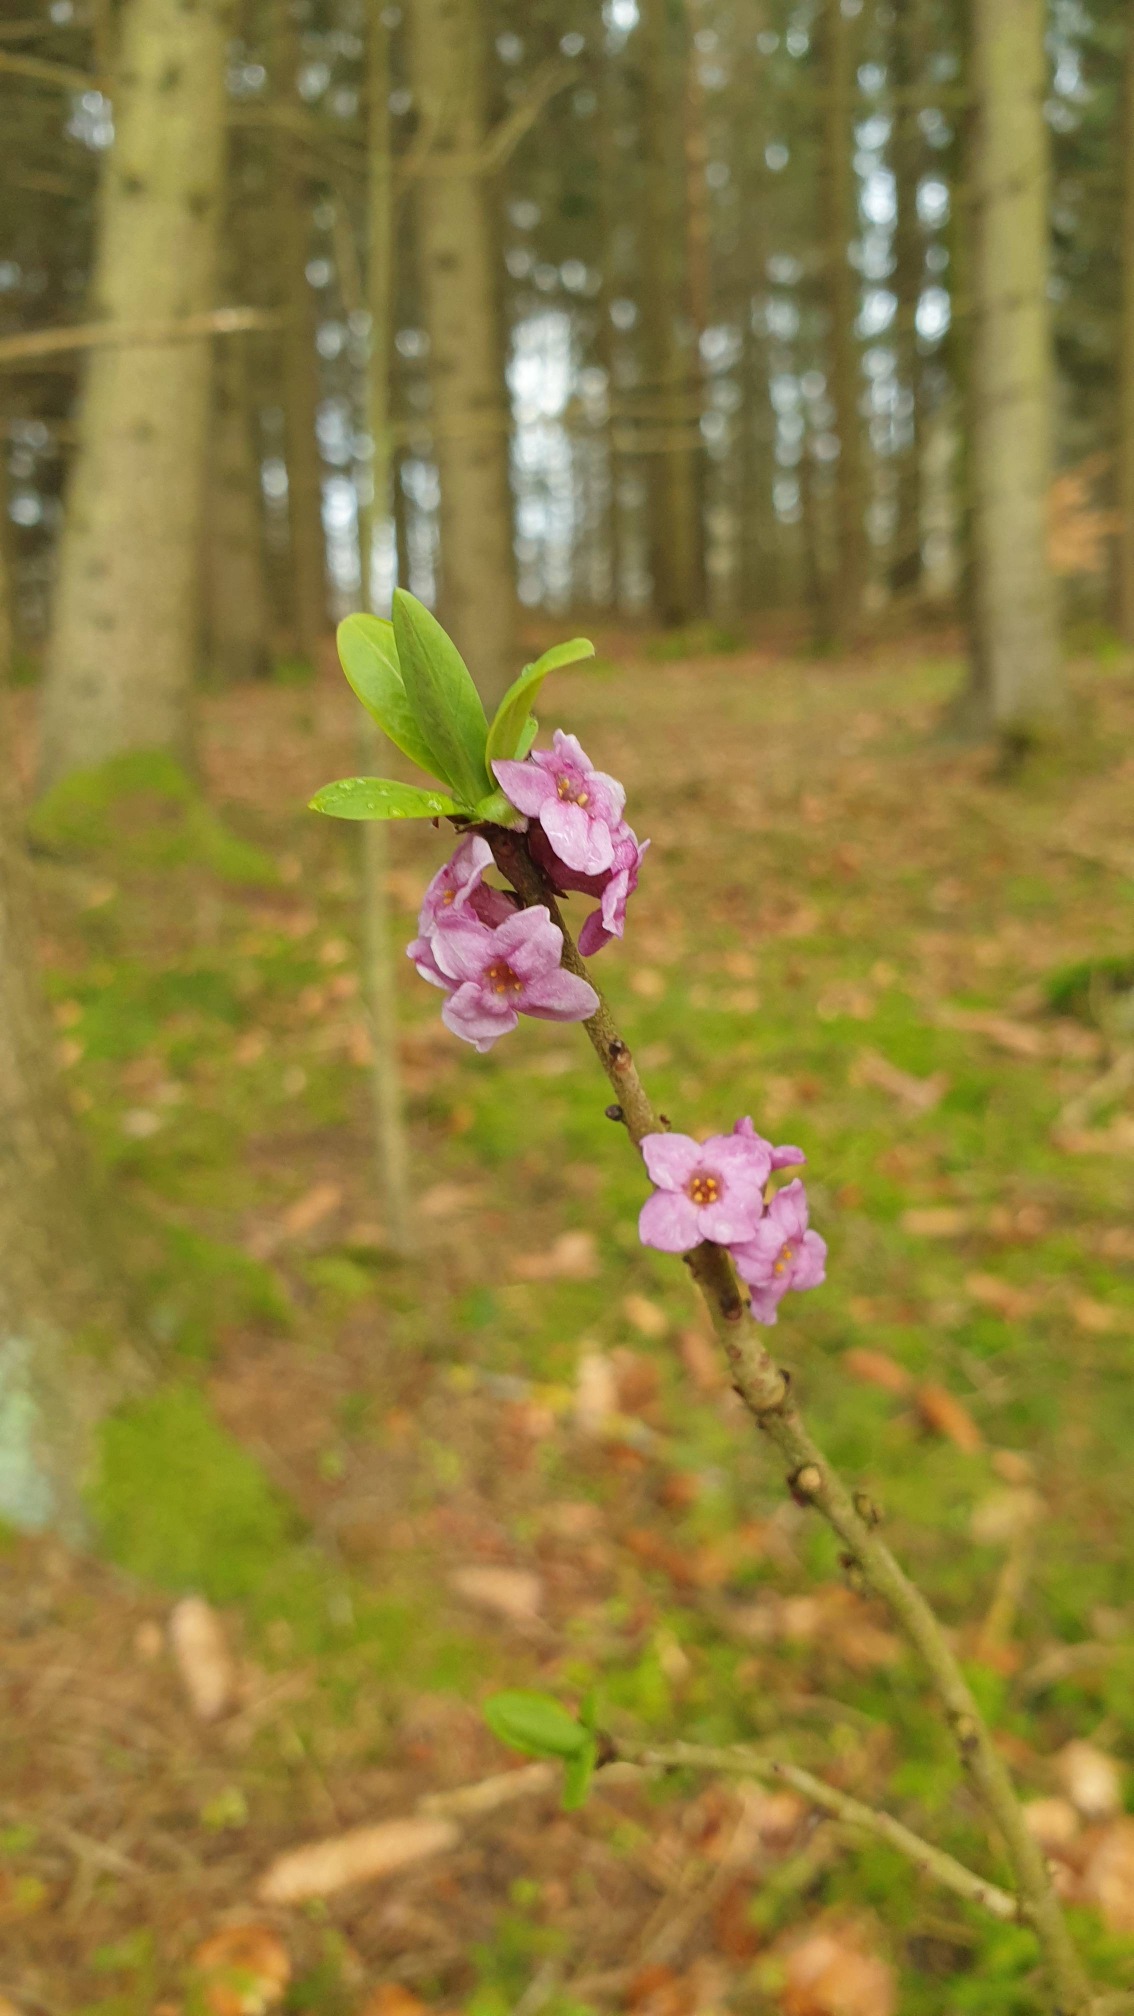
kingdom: Plantae
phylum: Tracheophyta
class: Magnoliopsida
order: Malvales
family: Thymelaeaceae
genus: Daphne
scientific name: Daphne mezereum
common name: Pebertræ
